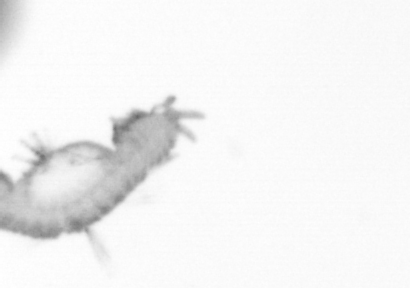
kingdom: Animalia
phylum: Annelida
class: Polychaeta
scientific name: Polychaeta
